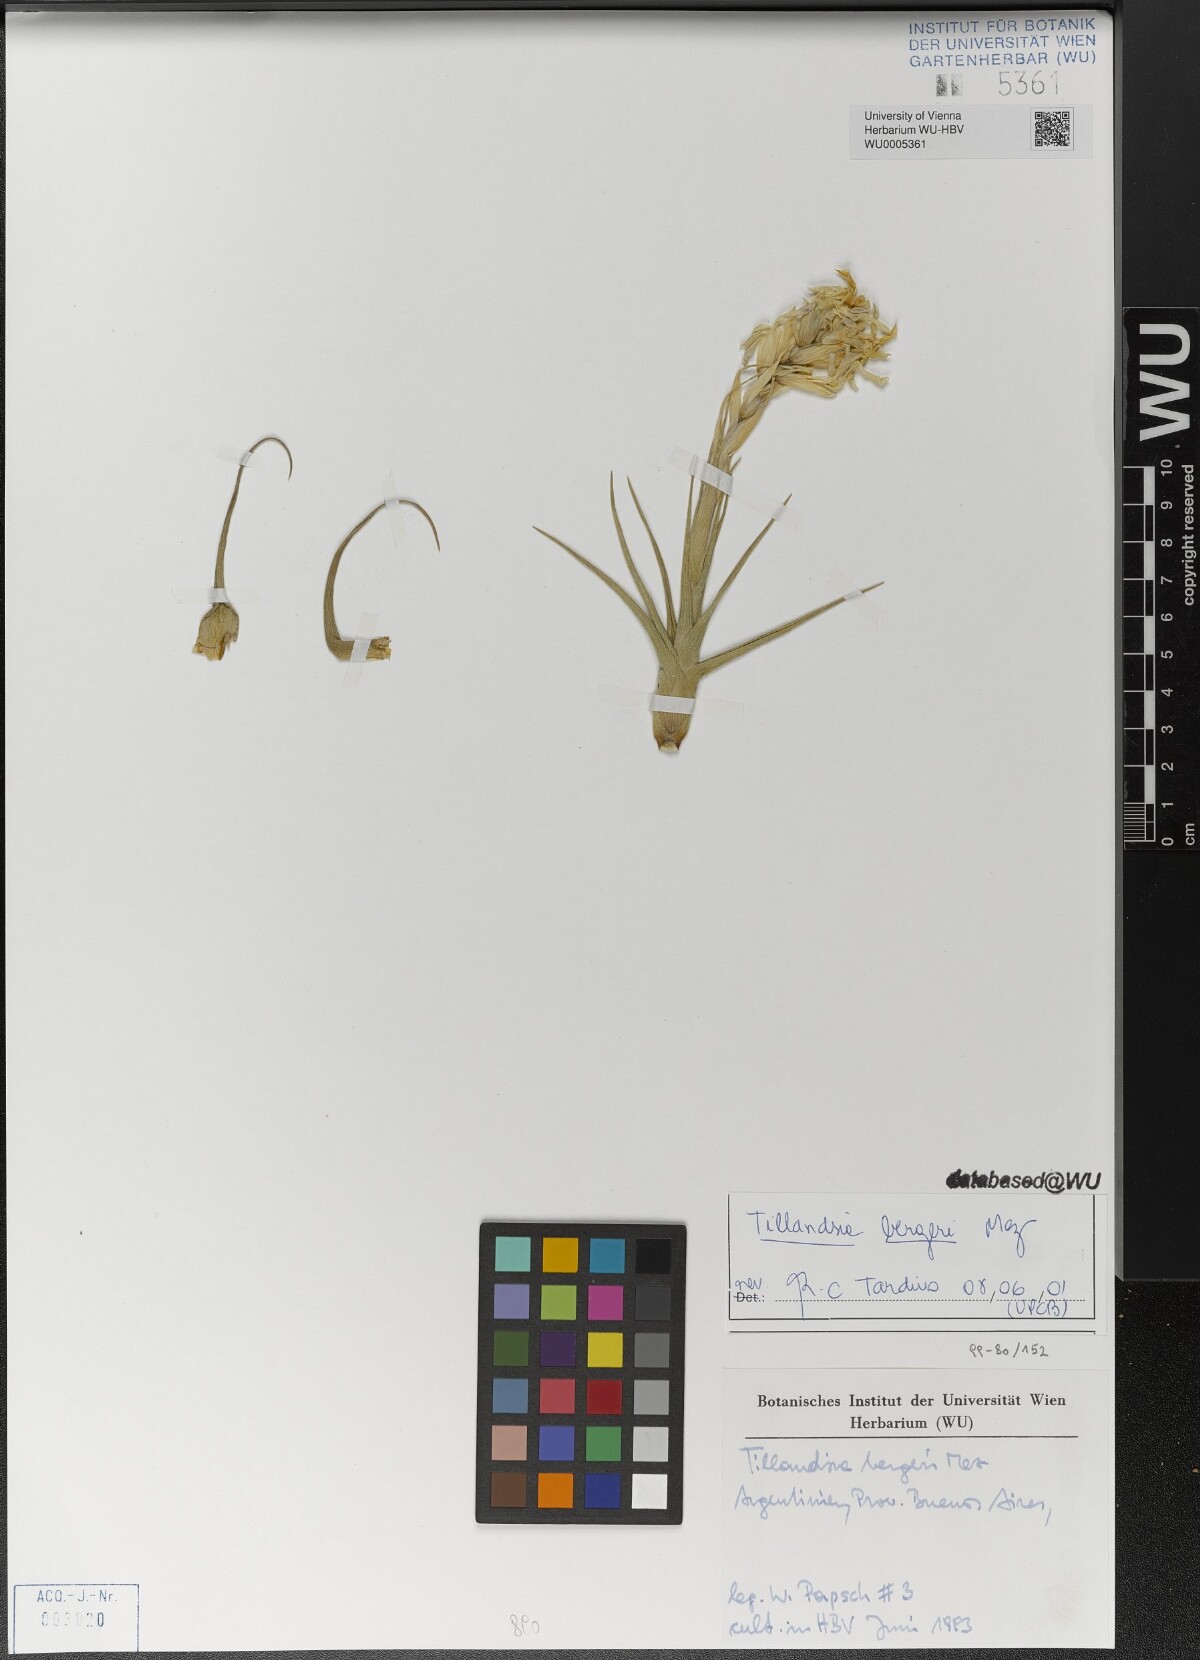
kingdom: Plantae
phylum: Tracheophyta
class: Liliopsida
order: Poales
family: Bromeliaceae
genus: Tillandsia
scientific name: Tillandsia bergeri
